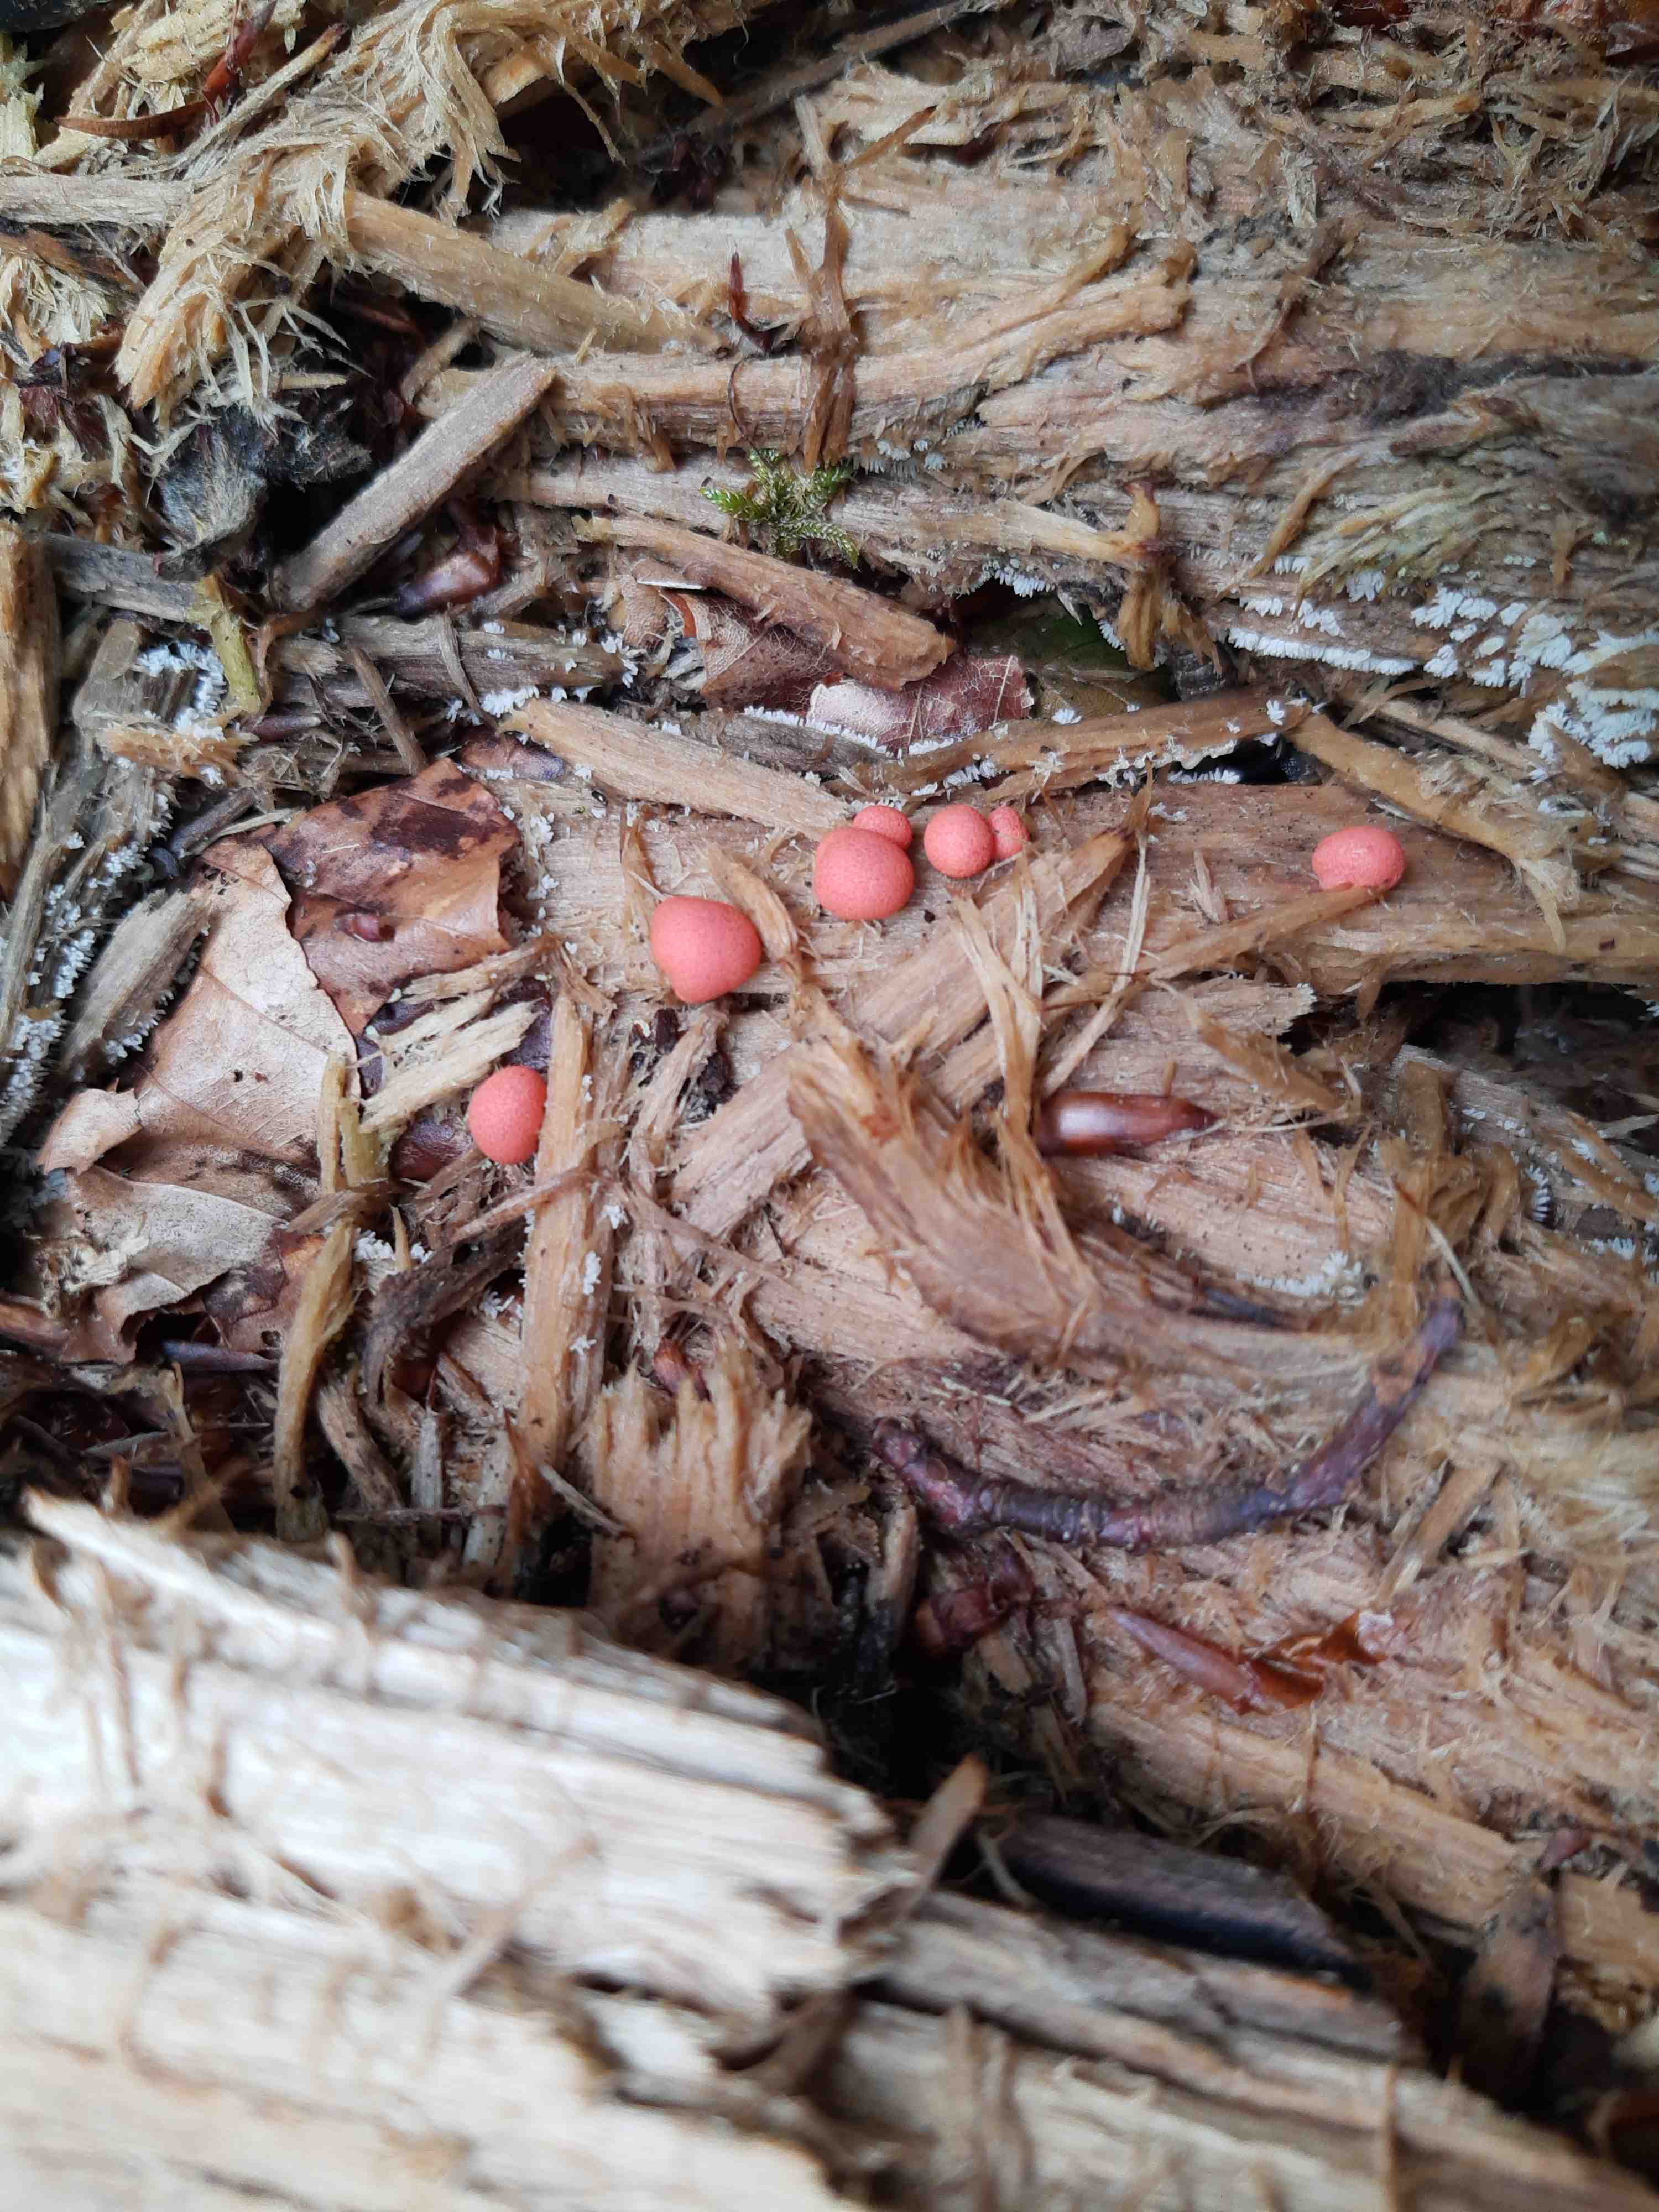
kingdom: Protozoa
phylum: Mycetozoa
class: Myxomycetes
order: Cribrariales
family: Tubiferaceae
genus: Lycogala
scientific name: Lycogala epidendrum
